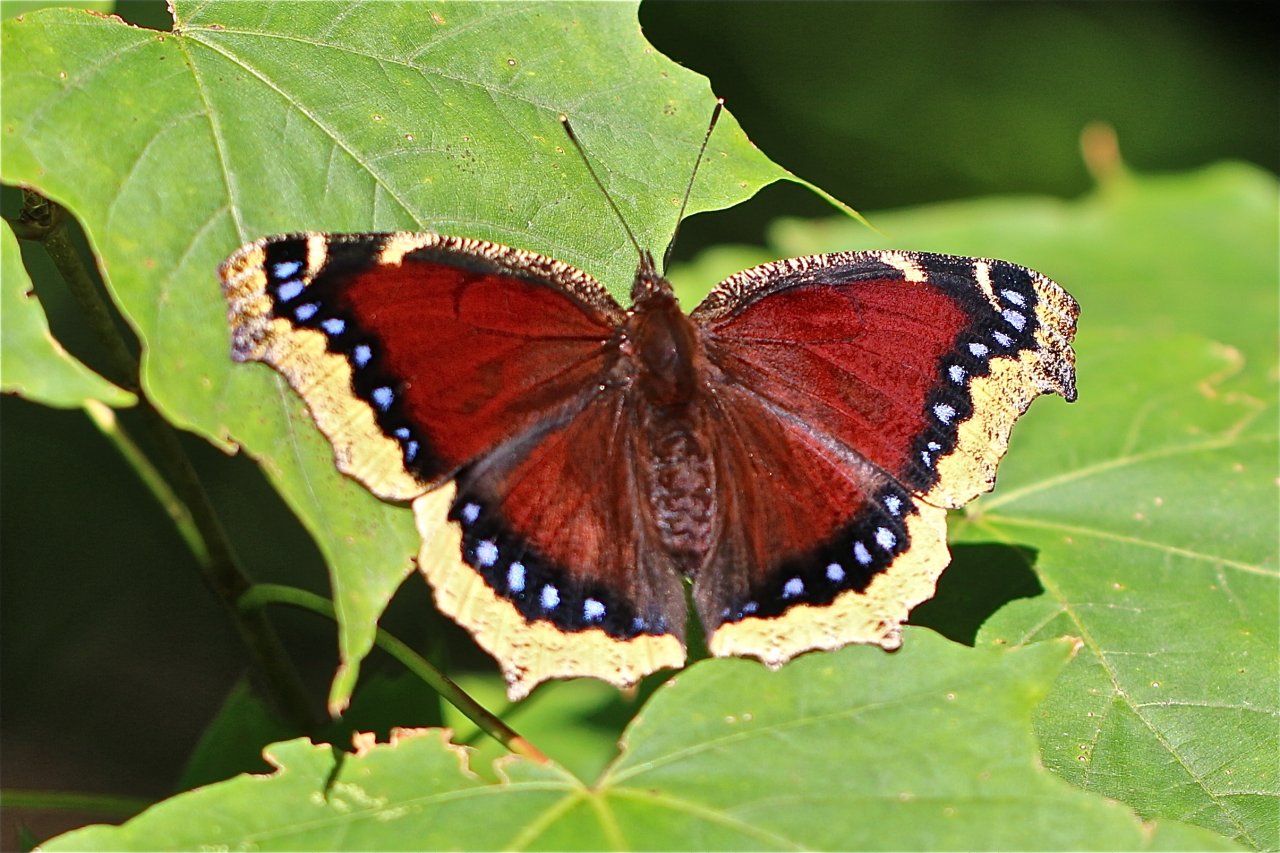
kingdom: Animalia
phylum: Arthropoda
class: Insecta
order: Lepidoptera
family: Nymphalidae
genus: Nymphalis
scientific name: Nymphalis antiopa
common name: Mourning Cloak
